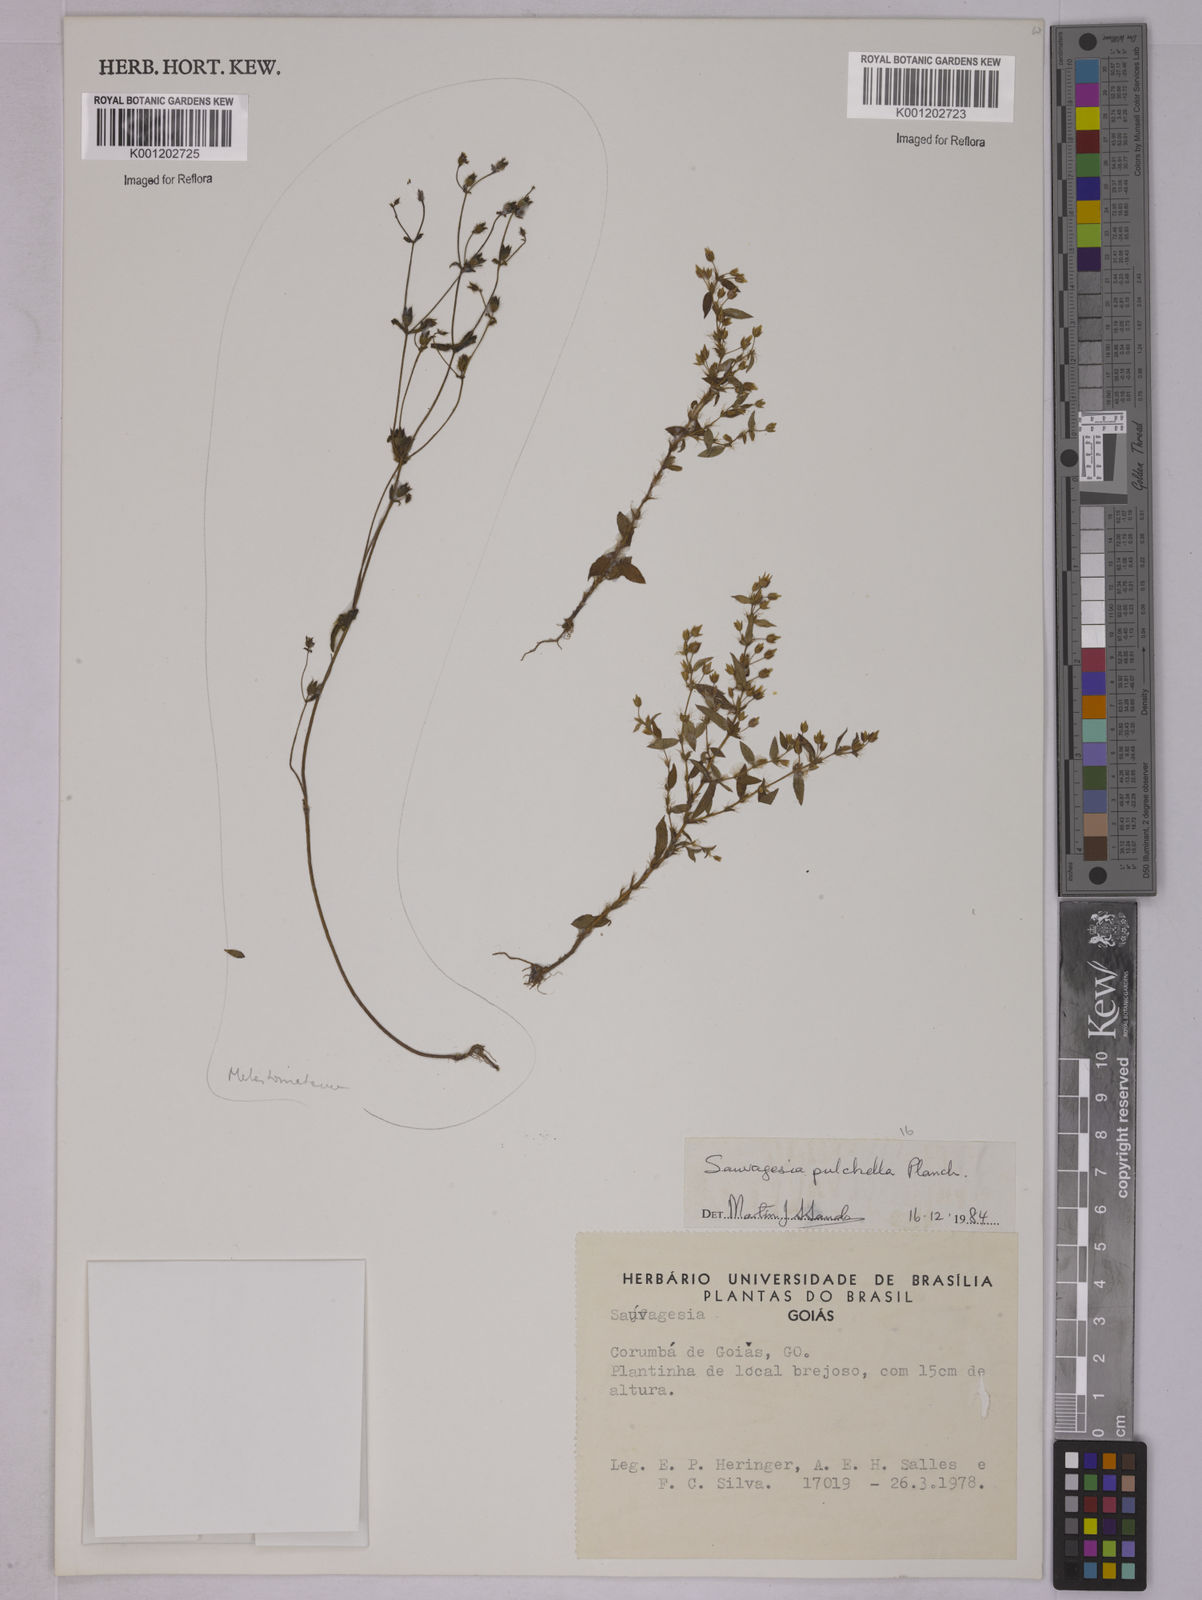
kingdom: Plantae
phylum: Tracheophyta
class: Magnoliopsida
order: Malpighiales
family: Ochnaceae
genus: Sauvagesia
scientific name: Sauvagesia
